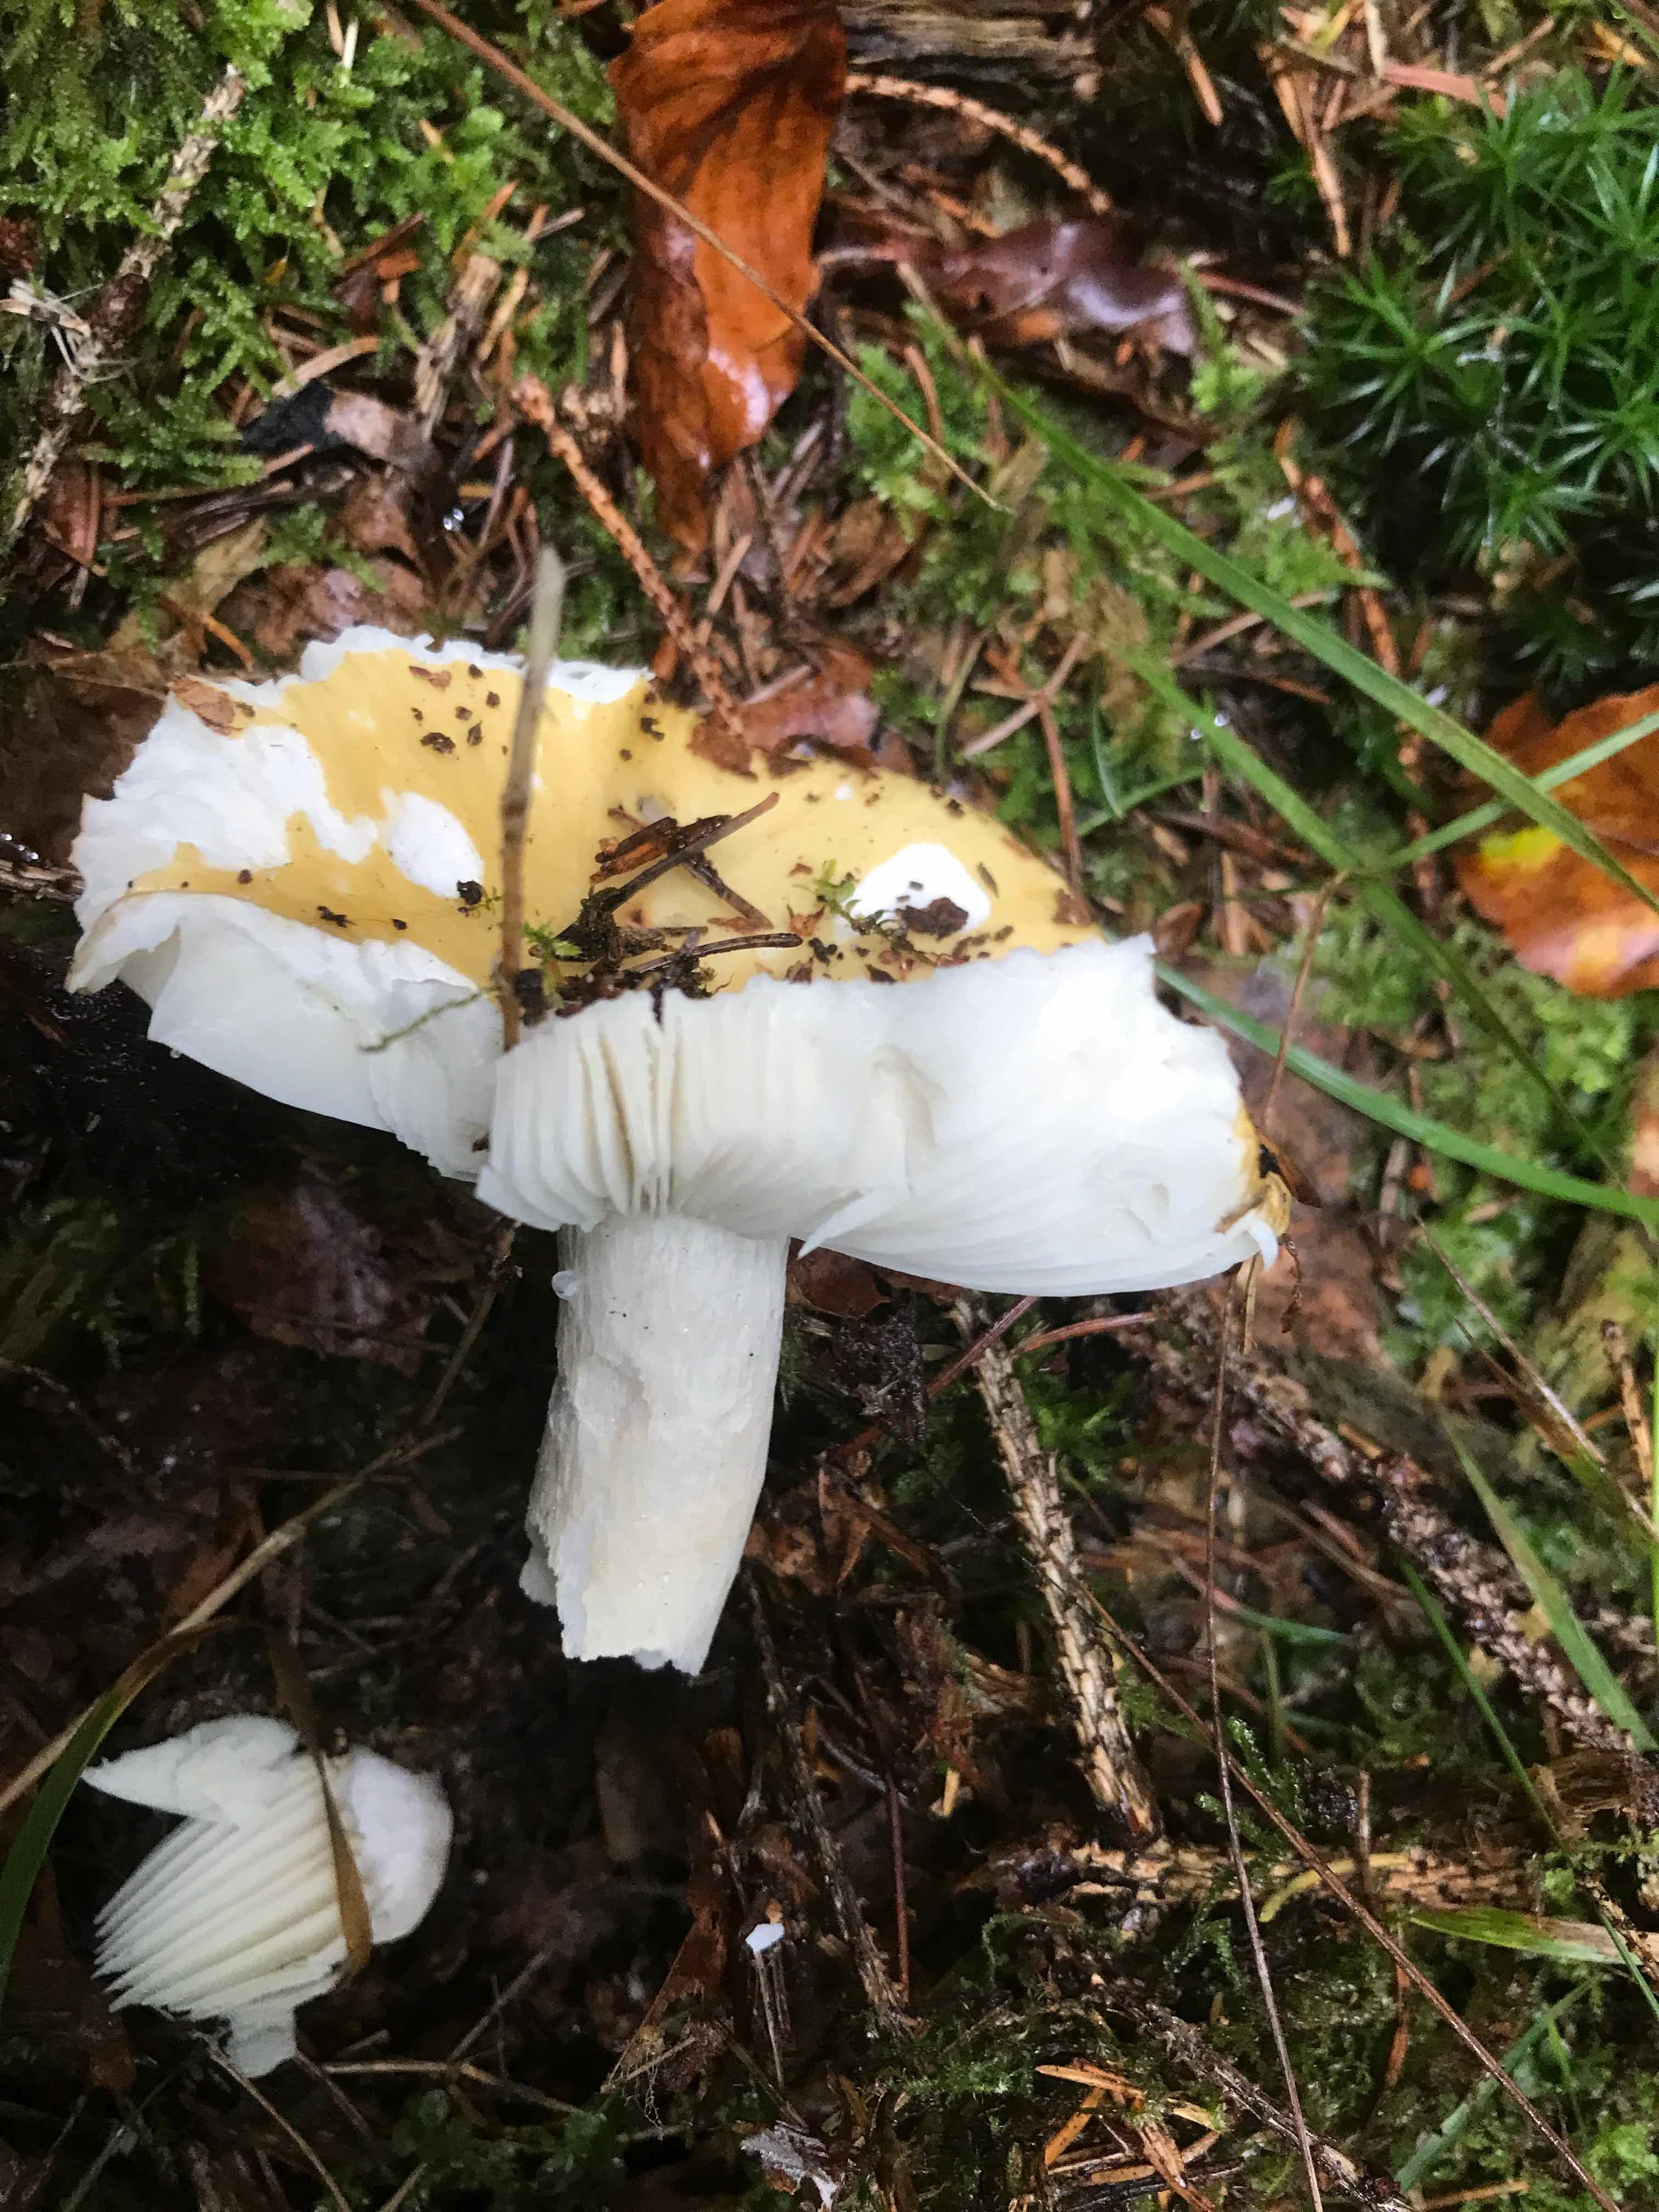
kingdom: Fungi
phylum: Basidiomycota
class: Agaricomycetes
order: Russulales
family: Russulaceae
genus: Russula
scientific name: Russula ochroleuca
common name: okkergul skørhat
